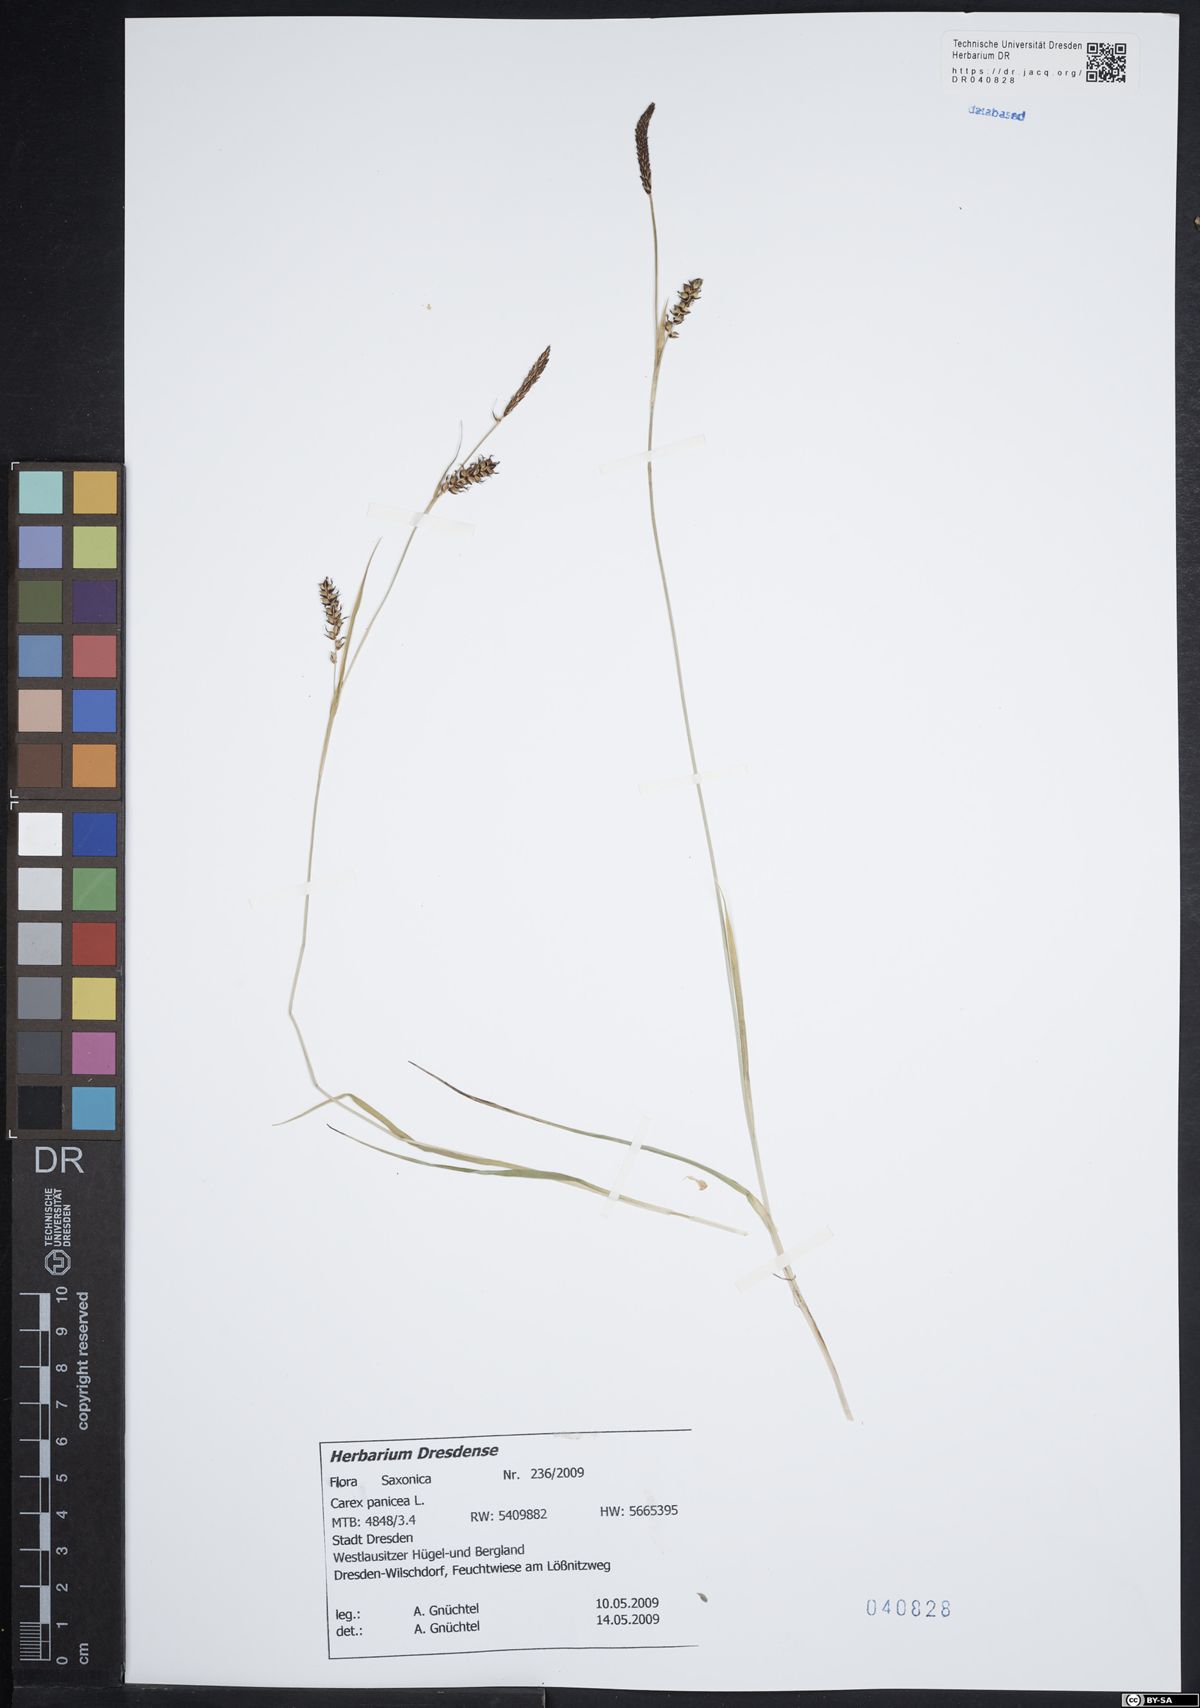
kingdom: Plantae
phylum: Tracheophyta
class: Liliopsida
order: Poales
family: Cyperaceae
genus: Carex
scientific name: Carex panicea
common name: Carnation sedge
